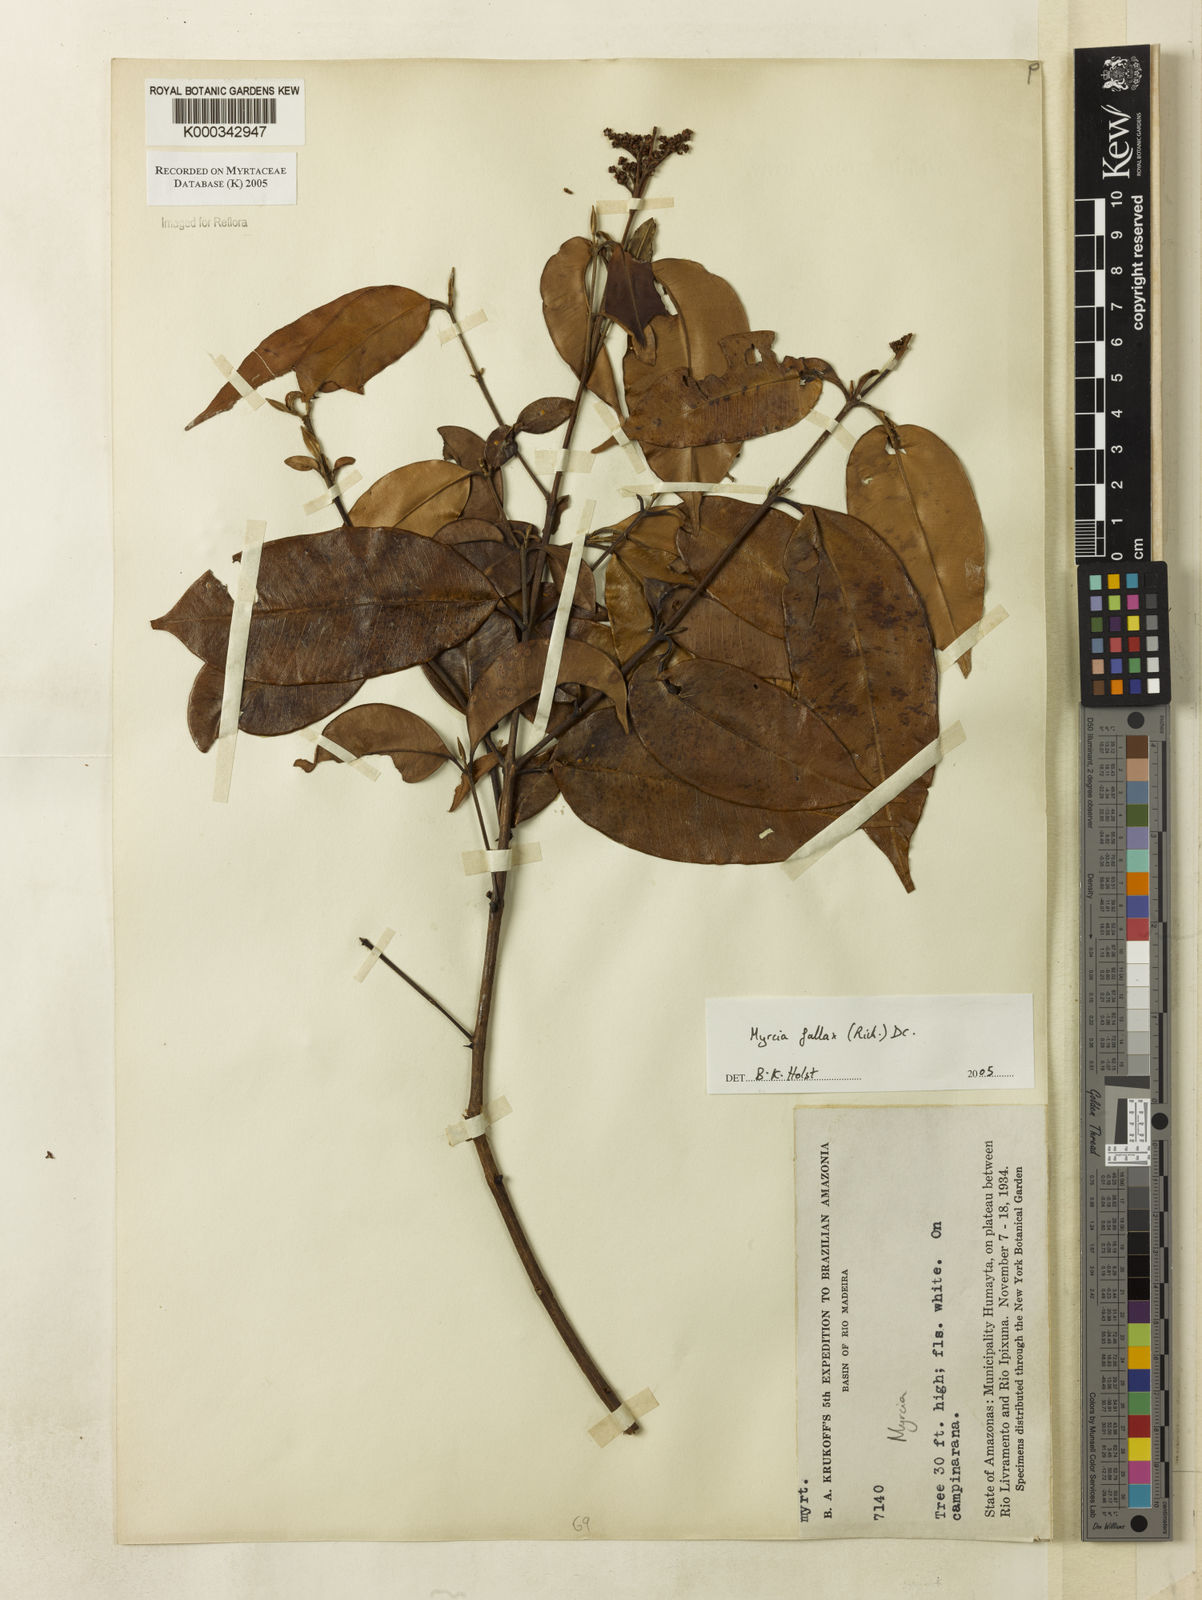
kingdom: Plantae
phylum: Tracheophyta
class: Magnoliopsida
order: Myrtales
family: Myrtaceae
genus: Myrcia
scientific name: Myrcia splendens
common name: Surinam cherry
